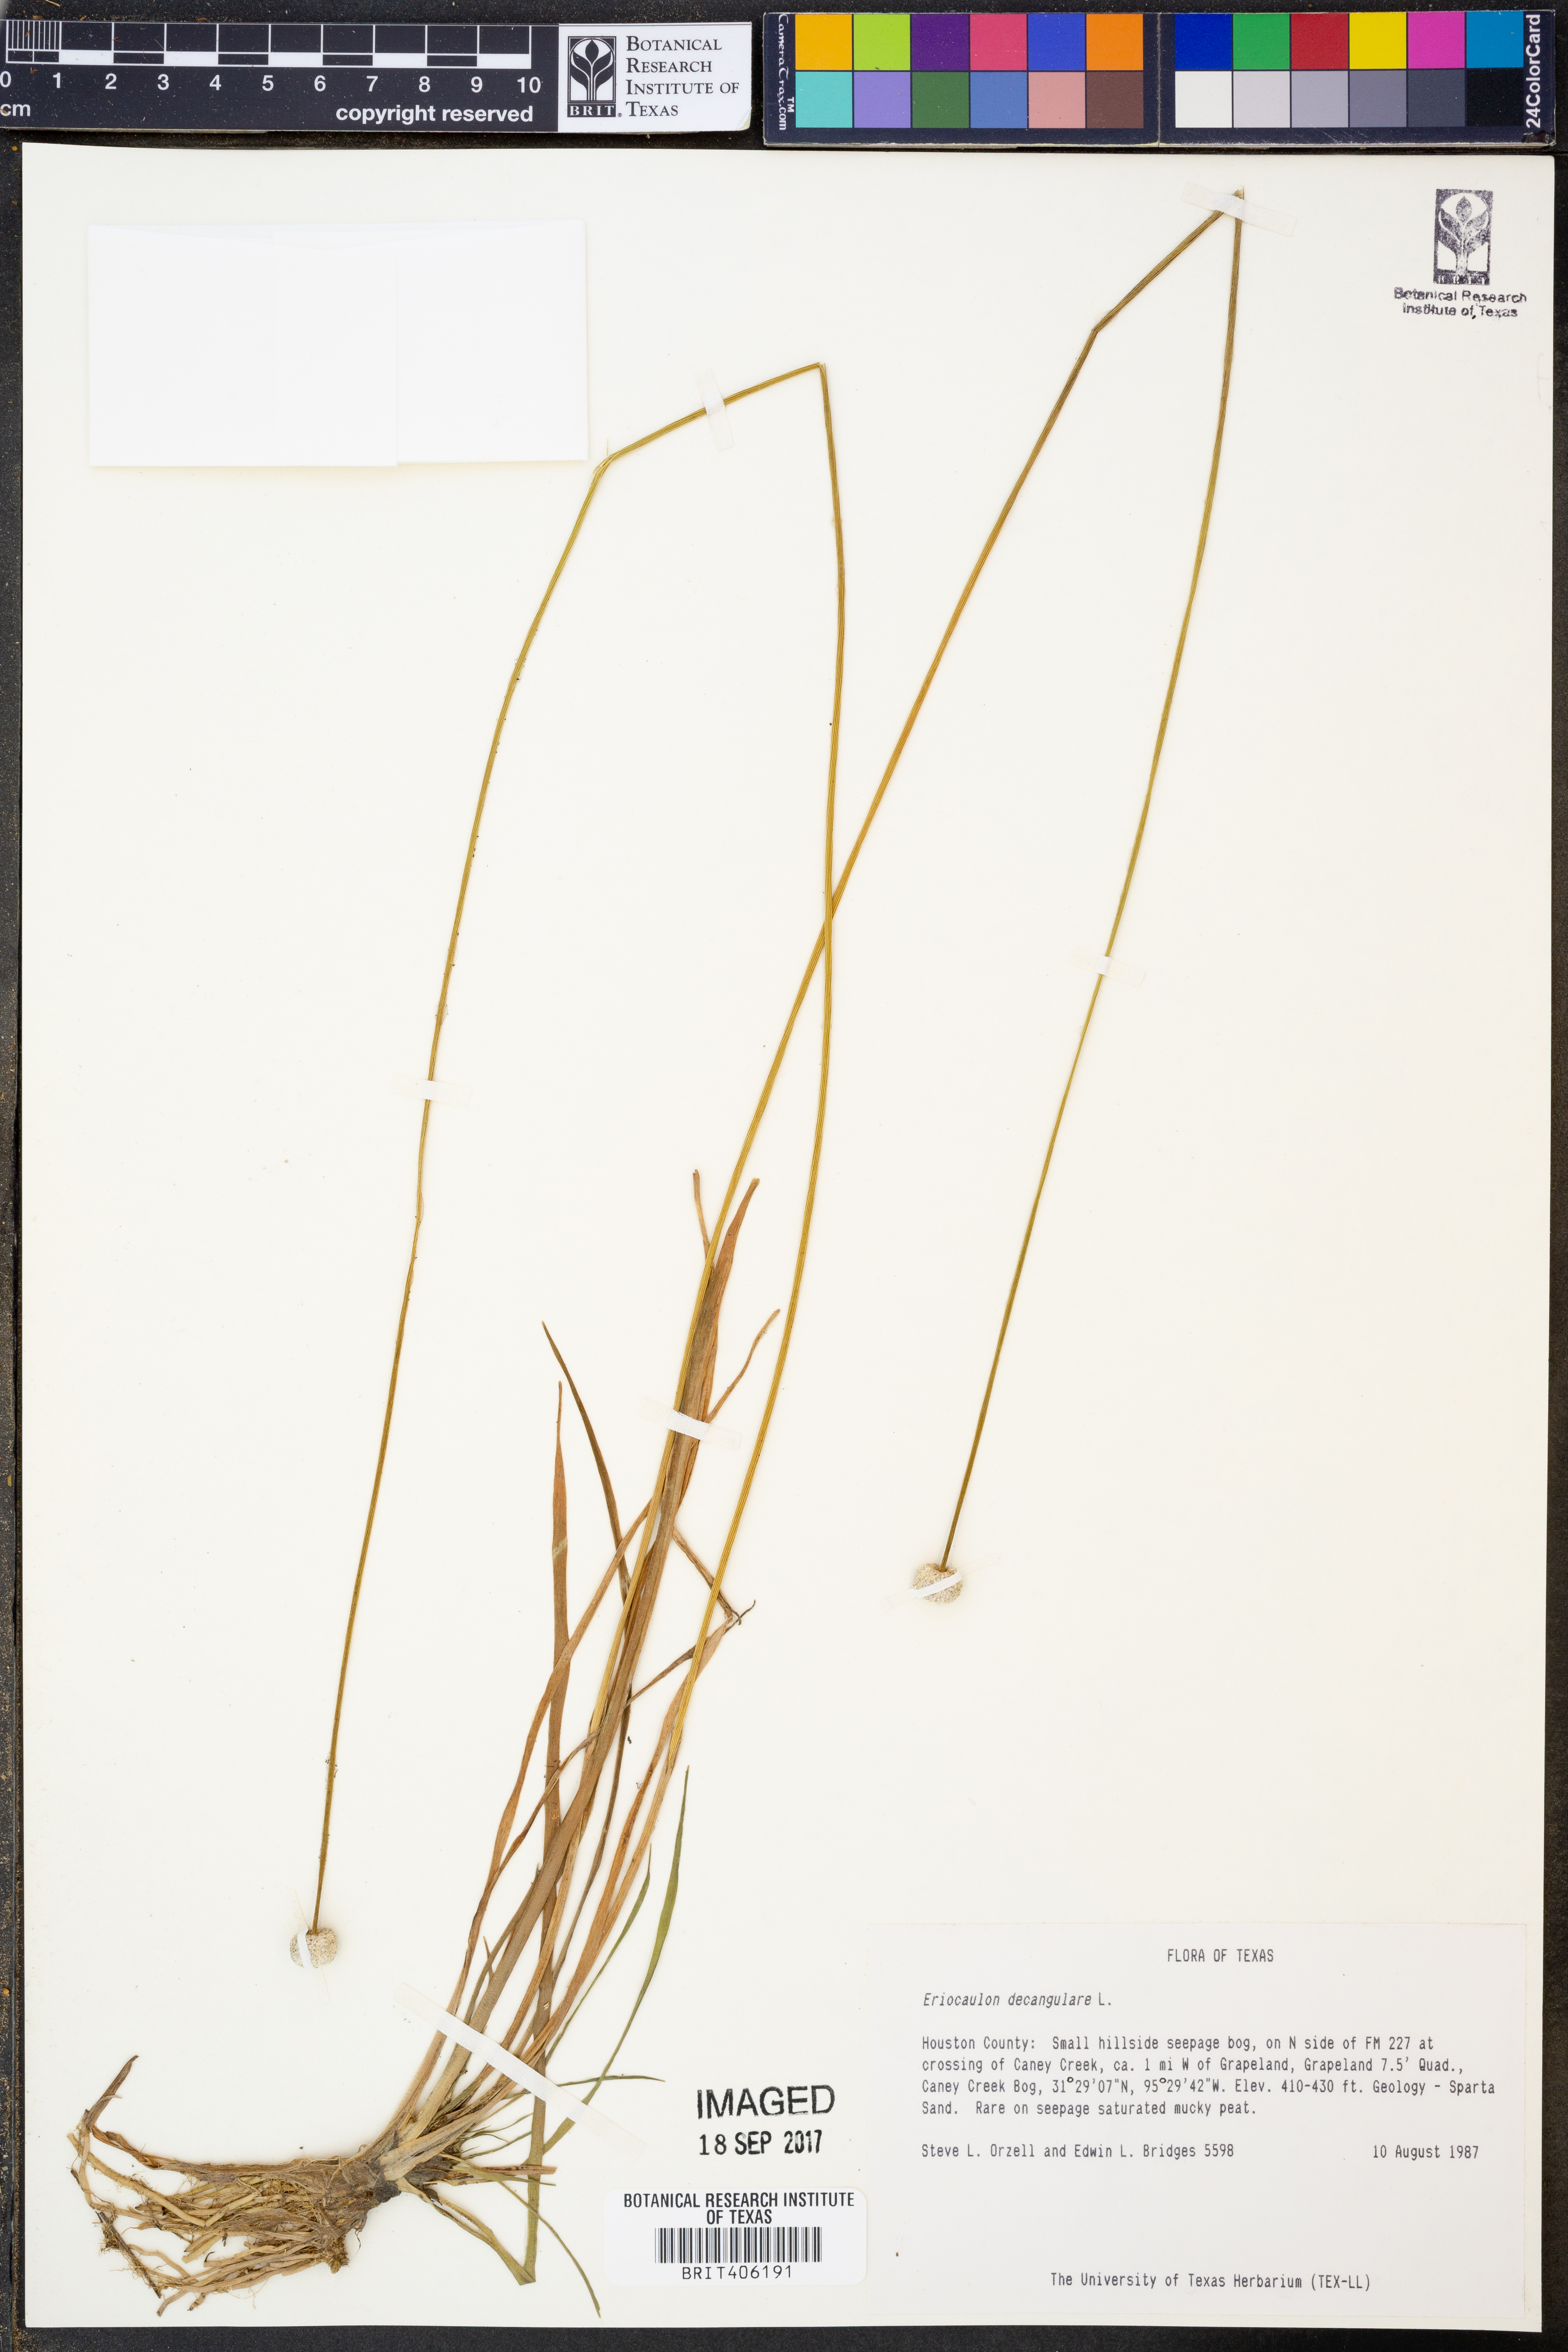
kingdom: Plantae
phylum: Tracheophyta
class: Liliopsida
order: Poales
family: Eriocaulaceae
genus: Eriocaulon
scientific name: Eriocaulon decangulare
